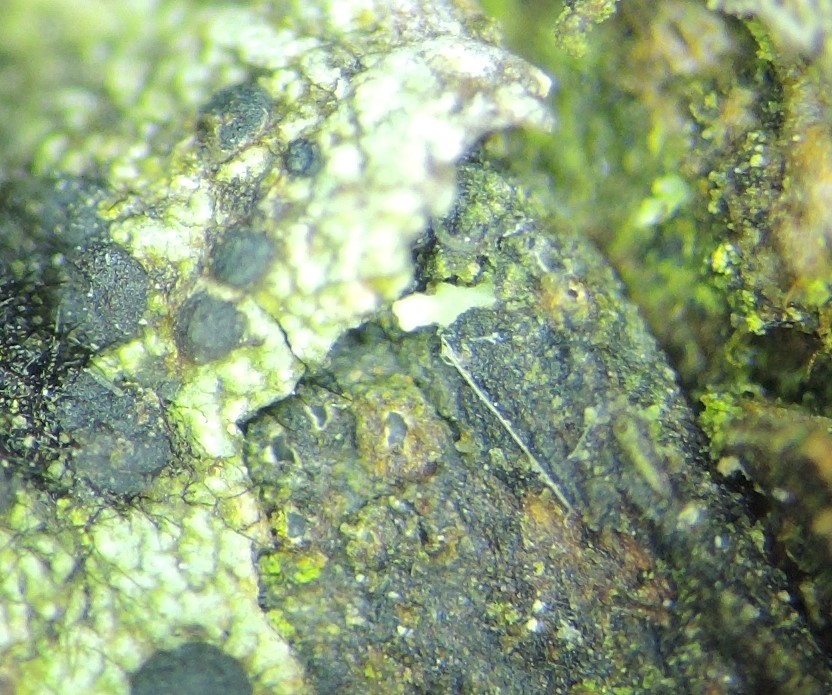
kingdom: Fungi
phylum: Ascomycota
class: Lecanoromycetes
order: Ostropales
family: Stictidaceae
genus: Karstenia
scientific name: Karstenia rhopaloides
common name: grårosa barkhul
